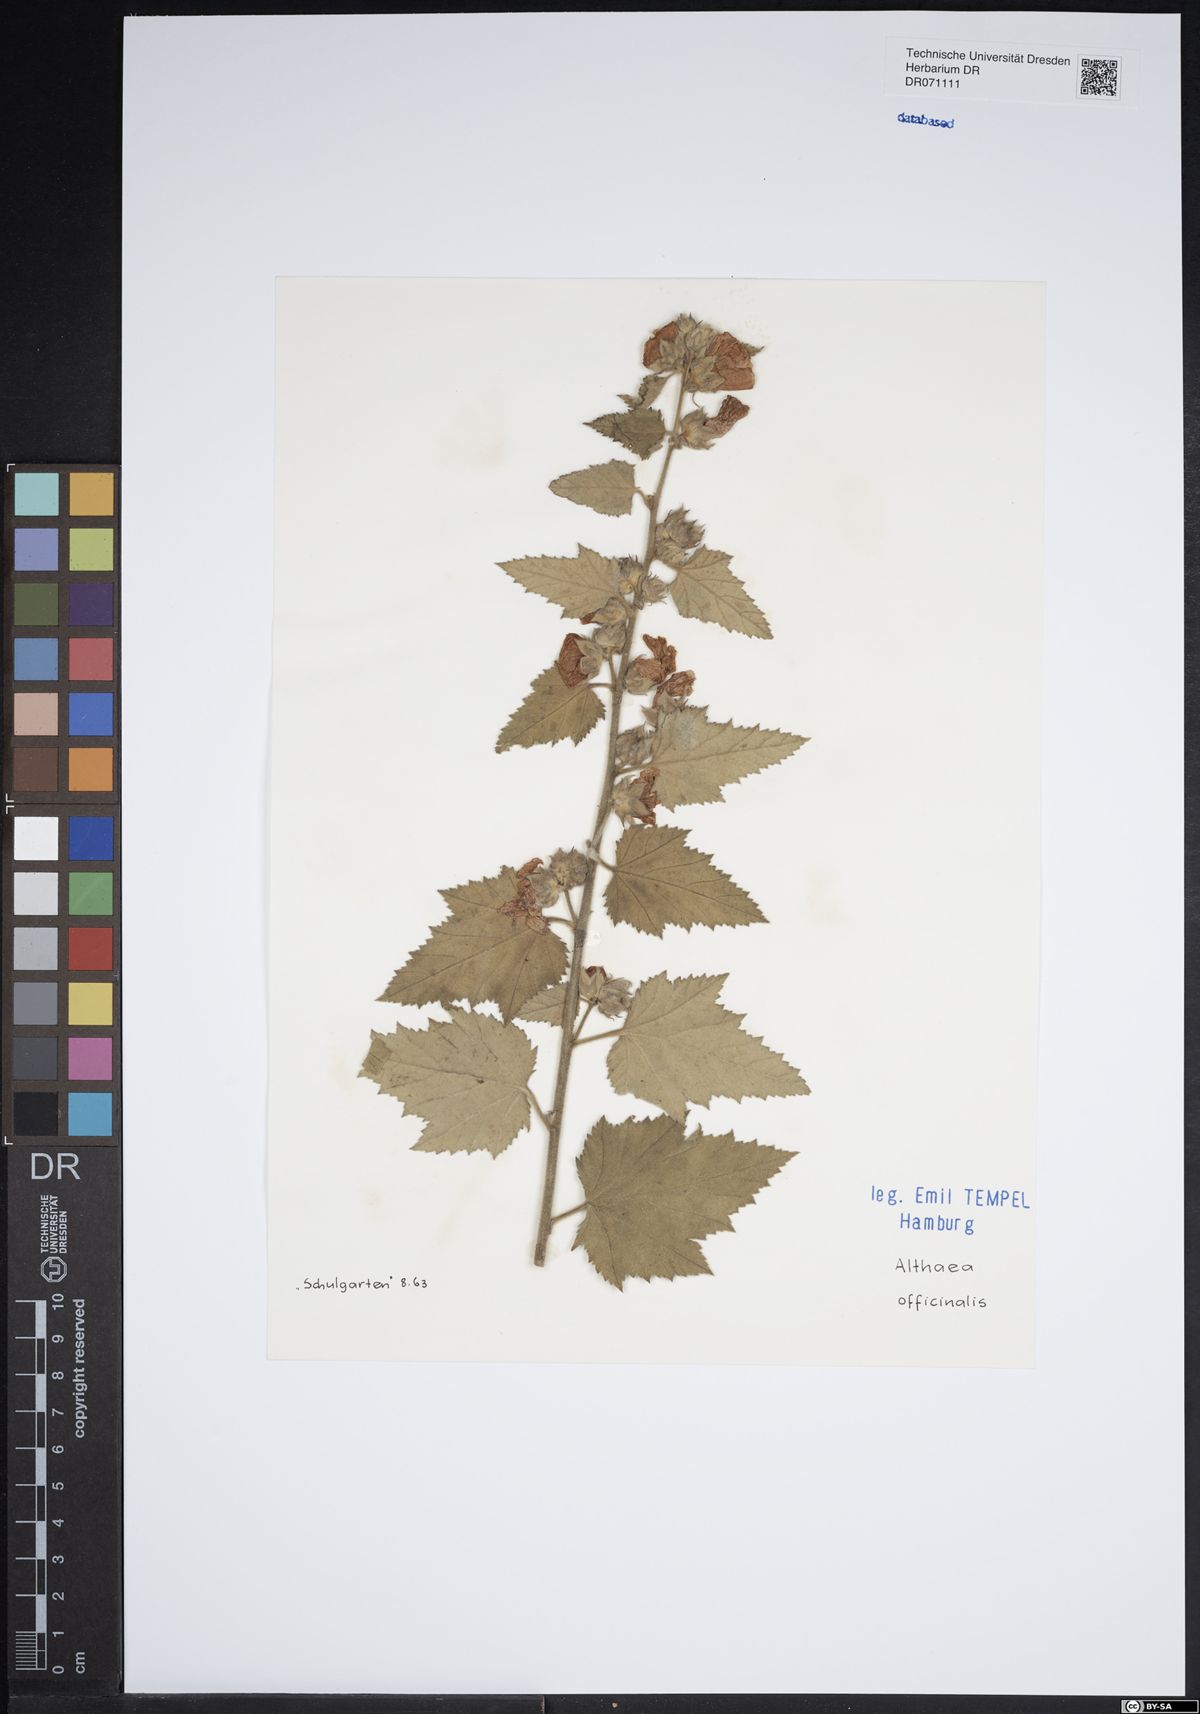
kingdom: Plantae
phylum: Tracheophyta
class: Magnoliopsida
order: Malvales
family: Malvaceae
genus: Althaea
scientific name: Althaea officinalis
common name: Marsh-mallow
